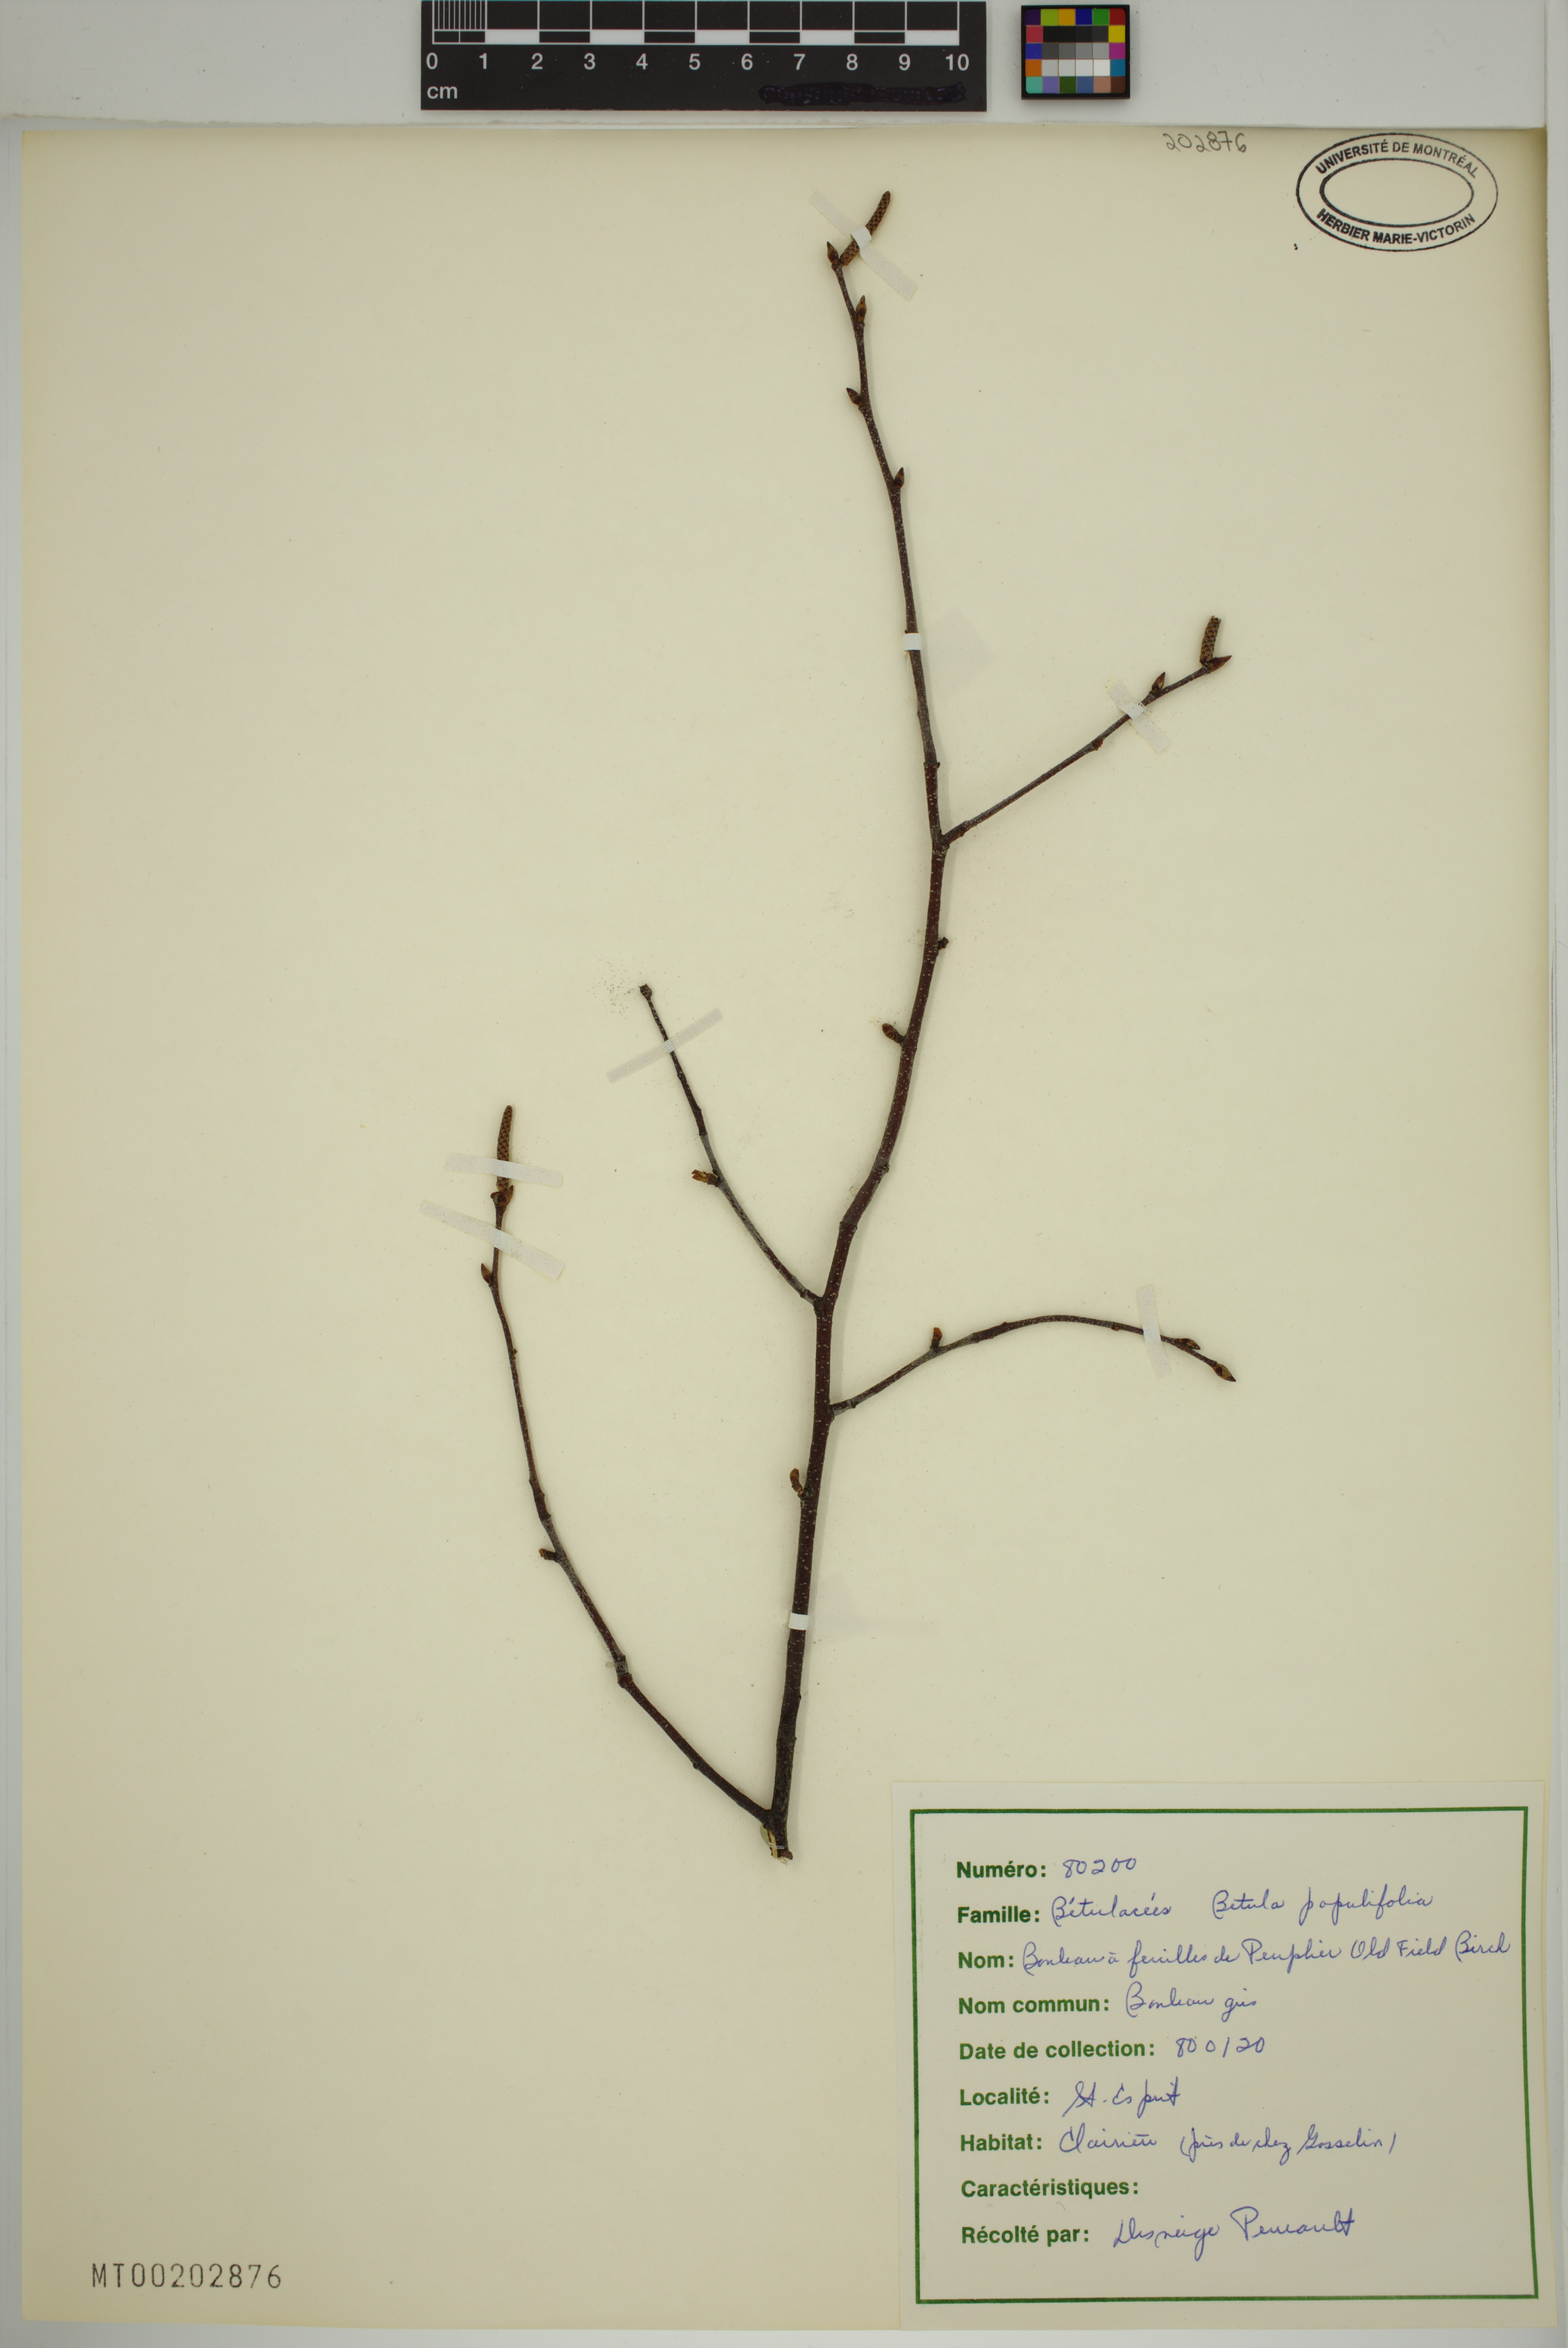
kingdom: Plantae
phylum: Tracheophyta
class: Magnoliopsida
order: Fagales
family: Betulaceae
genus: Betula
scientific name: Betula populifolia
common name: Fire birch
